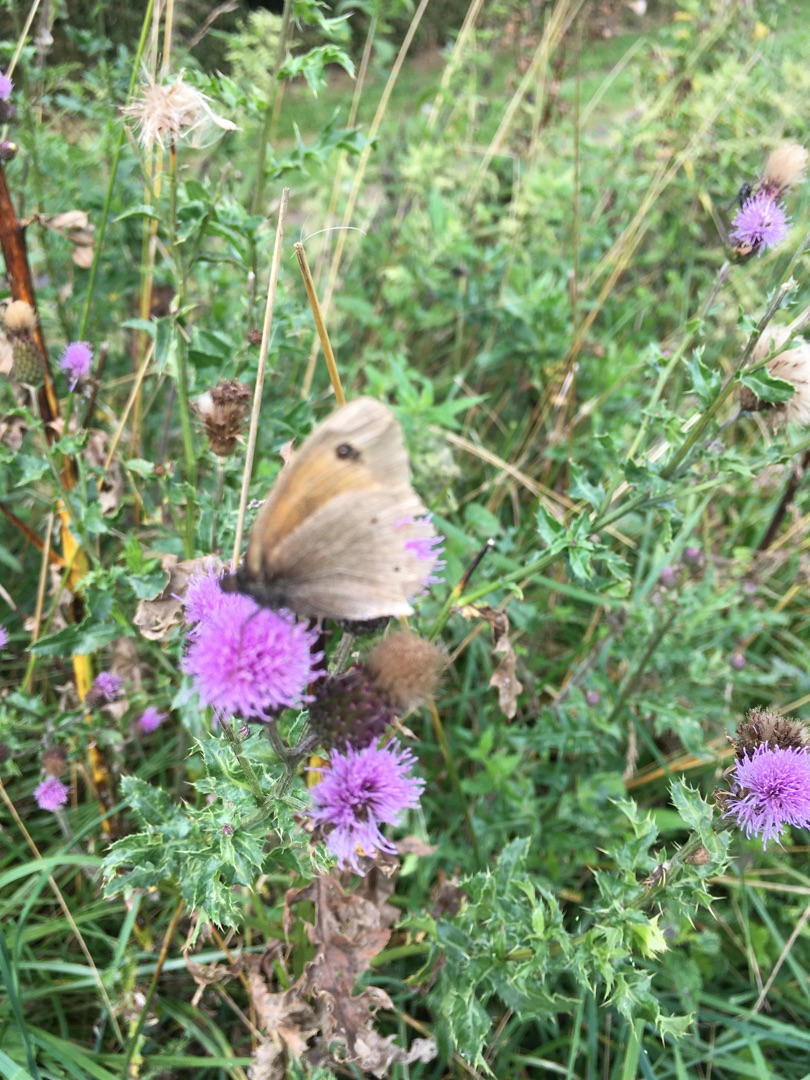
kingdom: Animalia
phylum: Arthropoda
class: Insecta
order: Lepidoptera
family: Nymphalidae
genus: Maniola
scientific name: Maniola jurtina
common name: Græsrandøje
